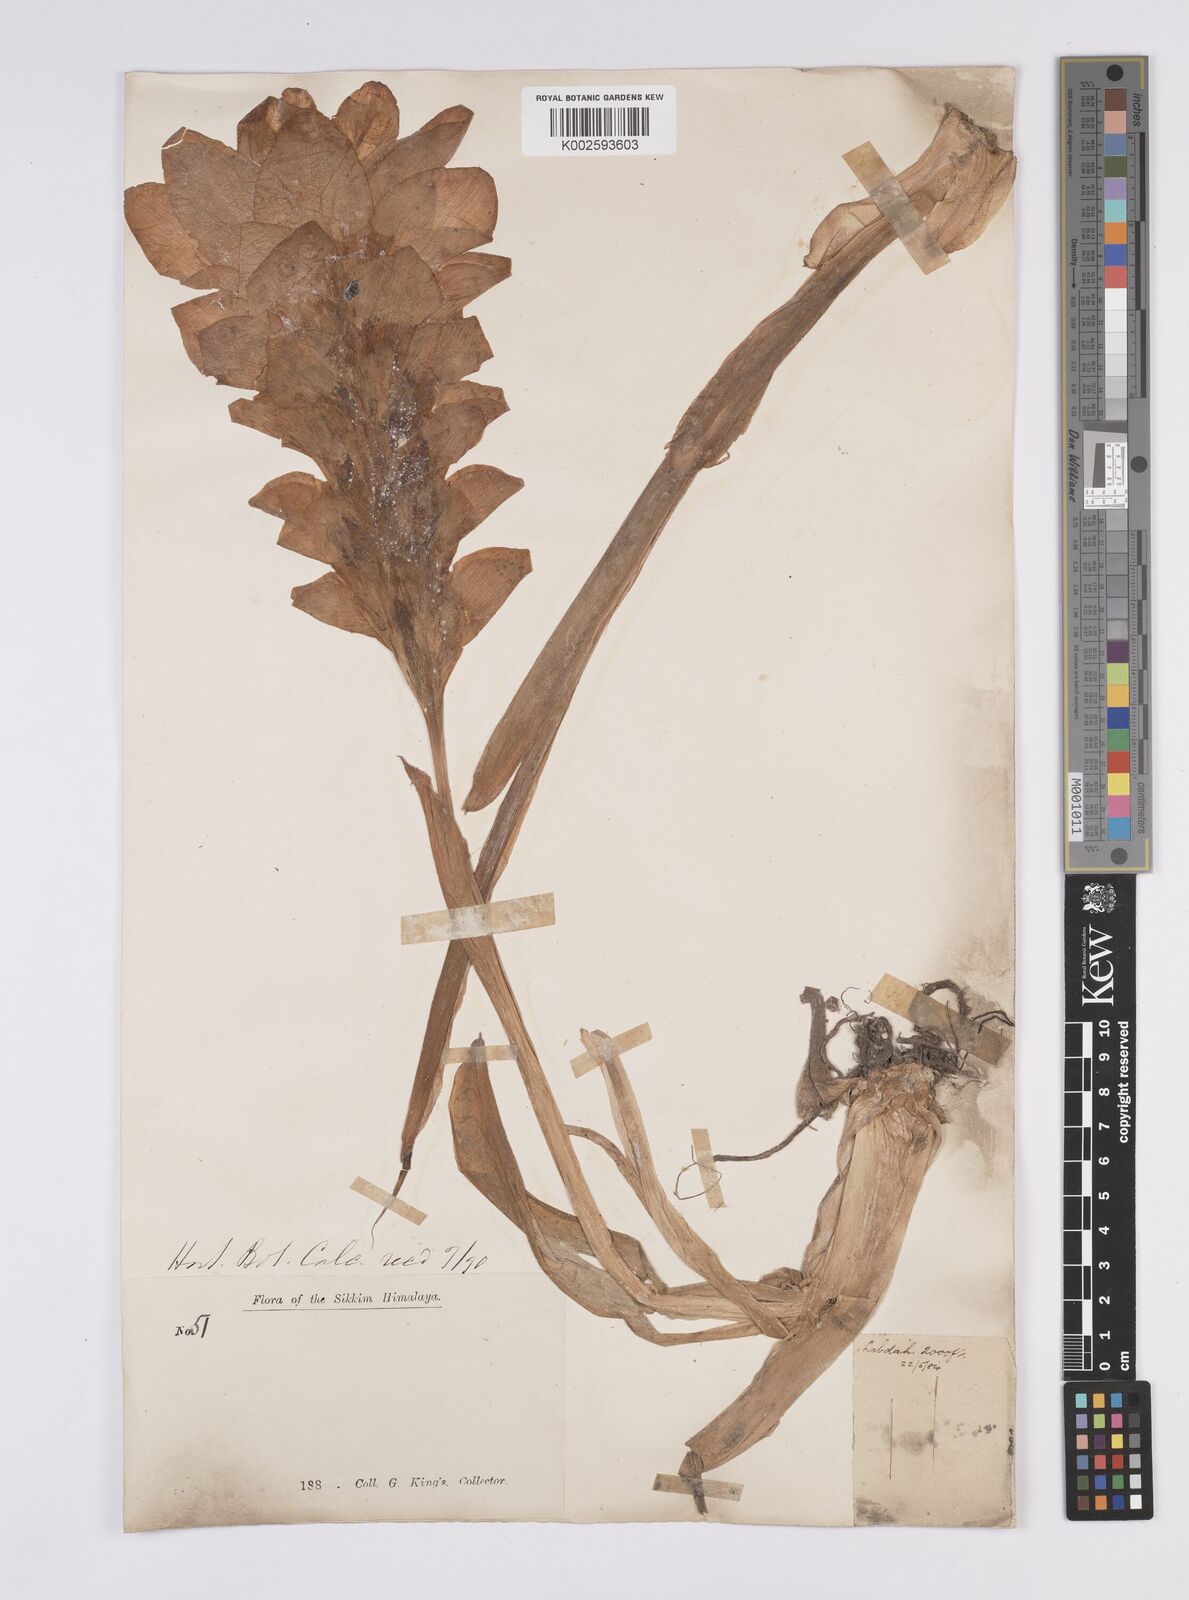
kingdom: Plantae
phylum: Tracheophyta
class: Liliopsida
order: Zingiberales
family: Zingiberaceae
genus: Curcuma
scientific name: Curcuma aromatica
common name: Wild turmeric
